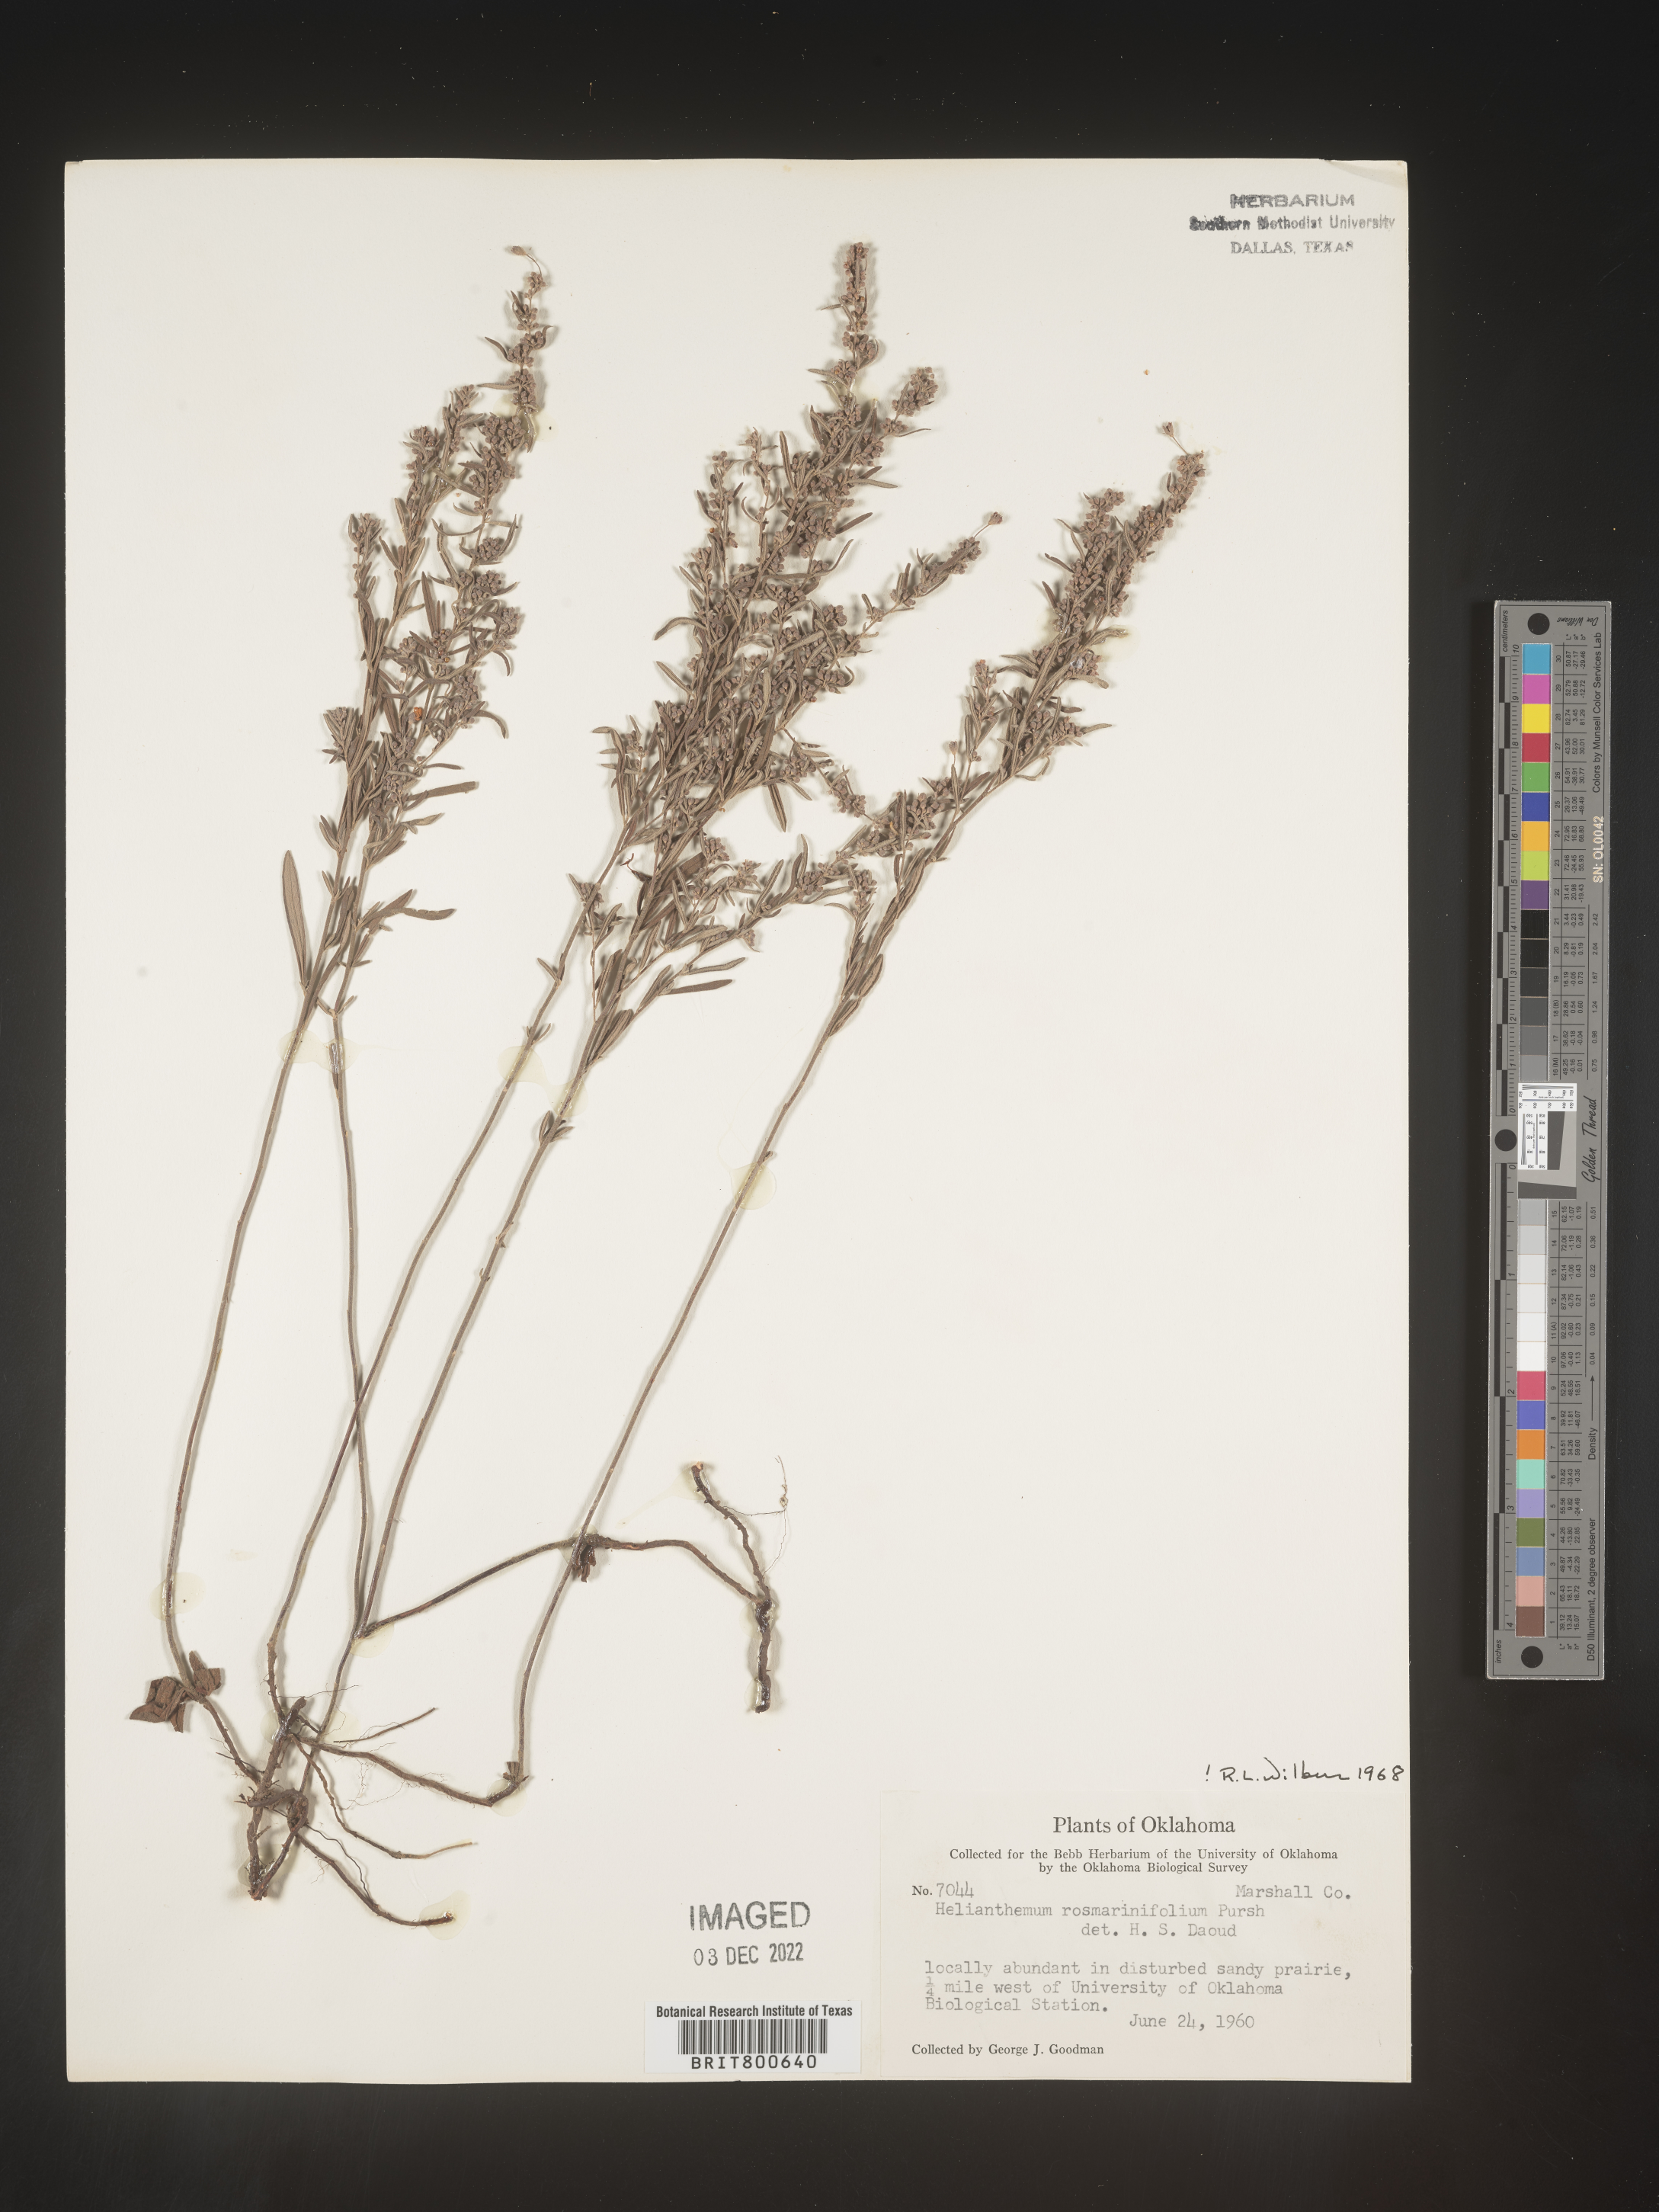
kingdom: Plantae
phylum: Tracheophyta
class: Magnoliopsida
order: Malvales
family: Cistaceae
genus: Crocanthemum
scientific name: Crocanthemum rosmarinifolium
